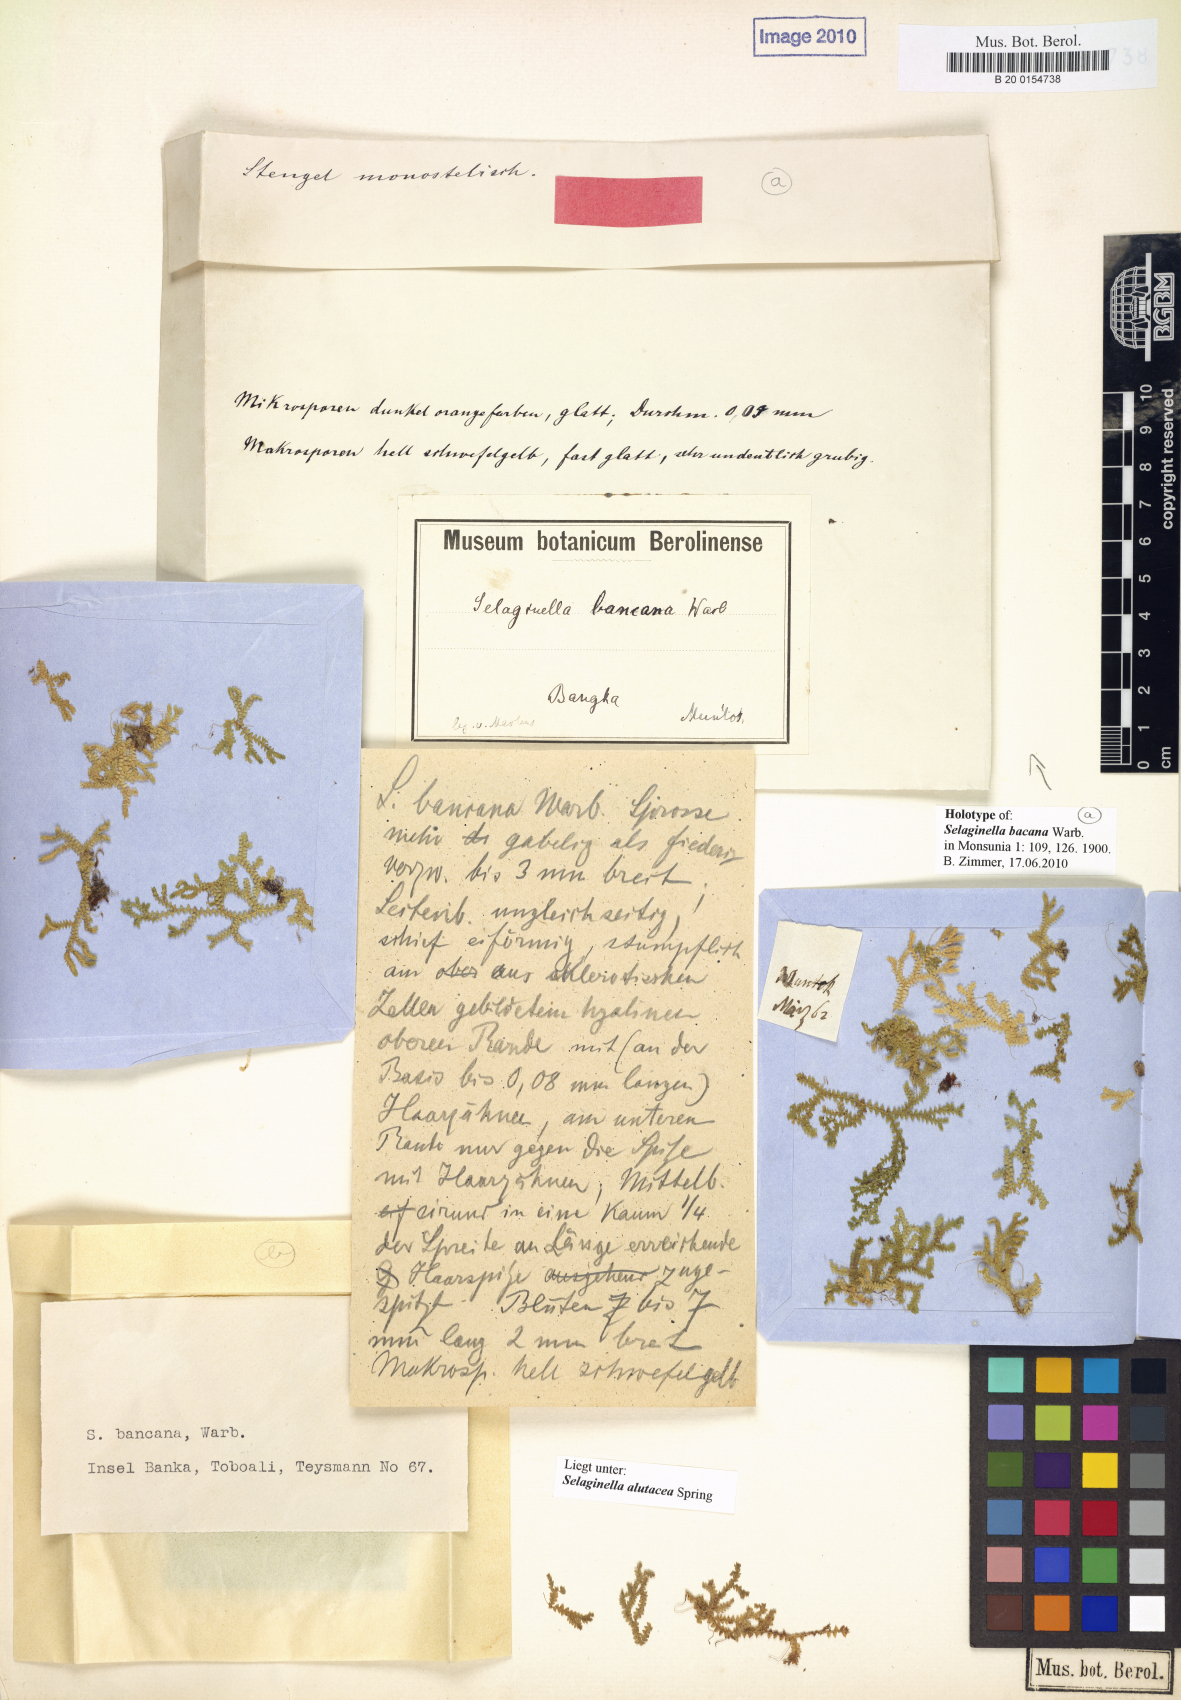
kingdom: Plantae
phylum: Tracheophyta
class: Lycopodiopsida
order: Selaginellales
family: Selaginellaceae
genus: Selaginella
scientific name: Selaginella alutacea
